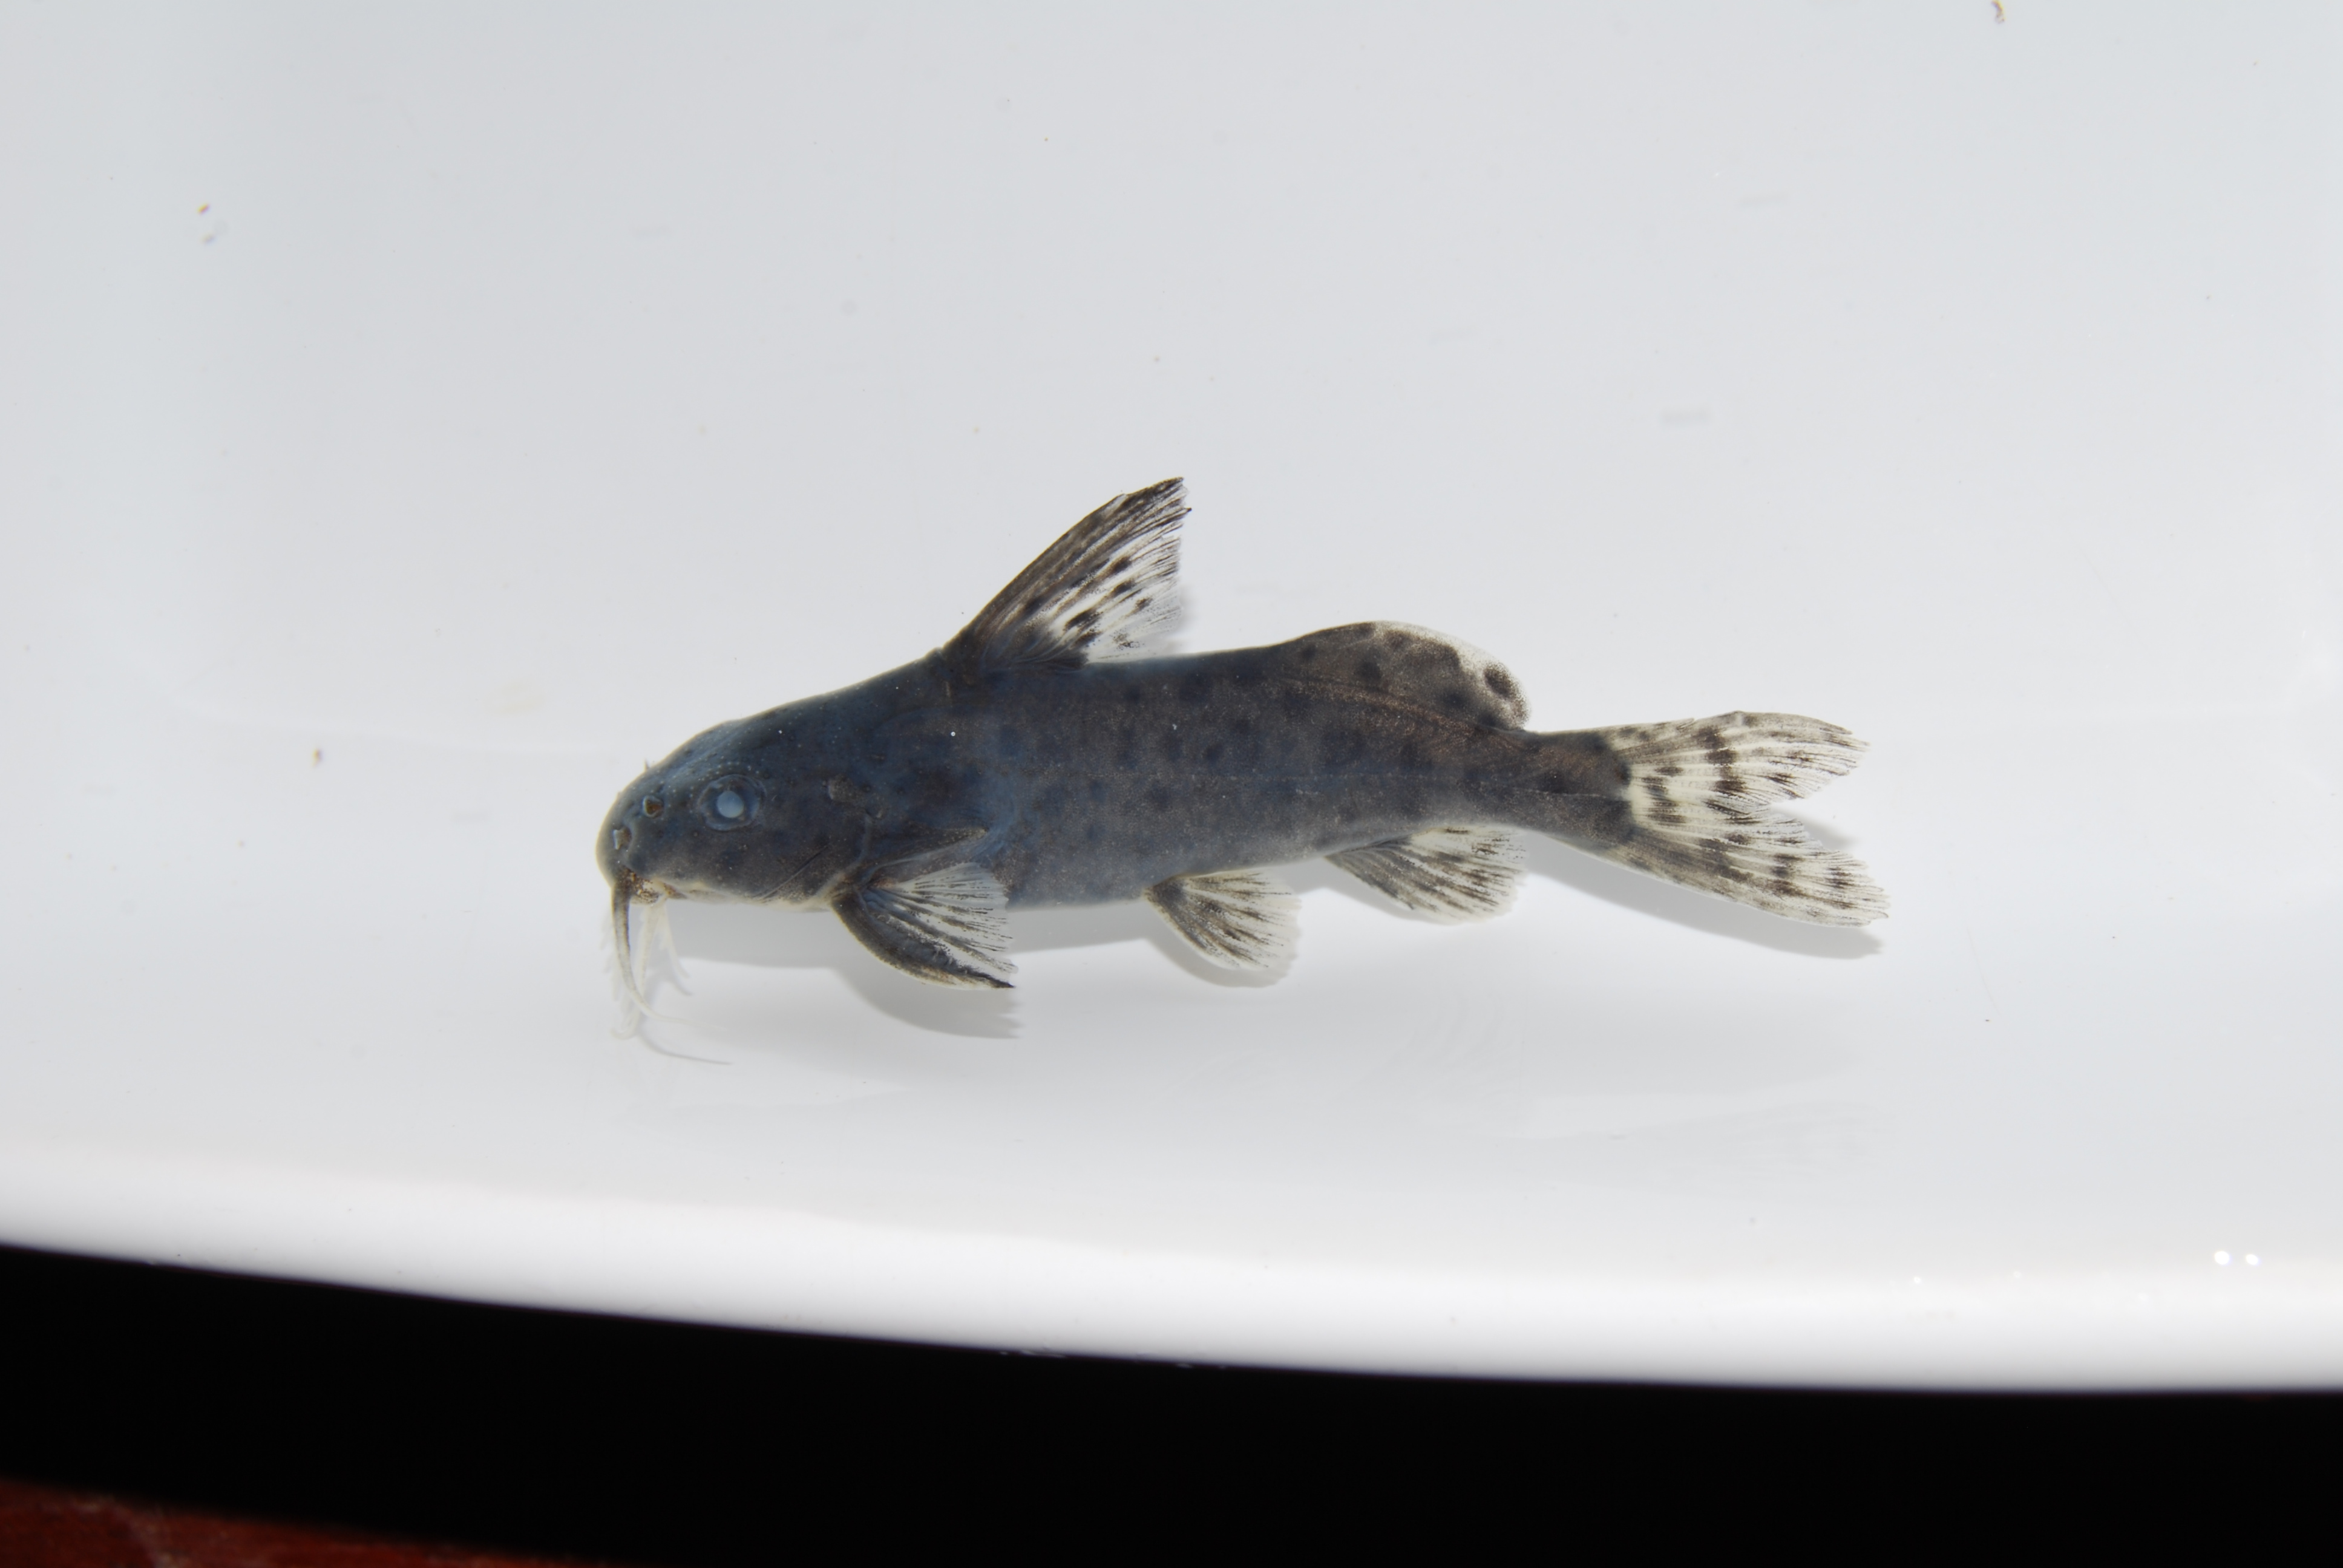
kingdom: Animalia
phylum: Chordata
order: Siluriformes
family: Mochokidae
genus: Synodontis
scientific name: Synodontis zambezensis
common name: Brown squeaker
